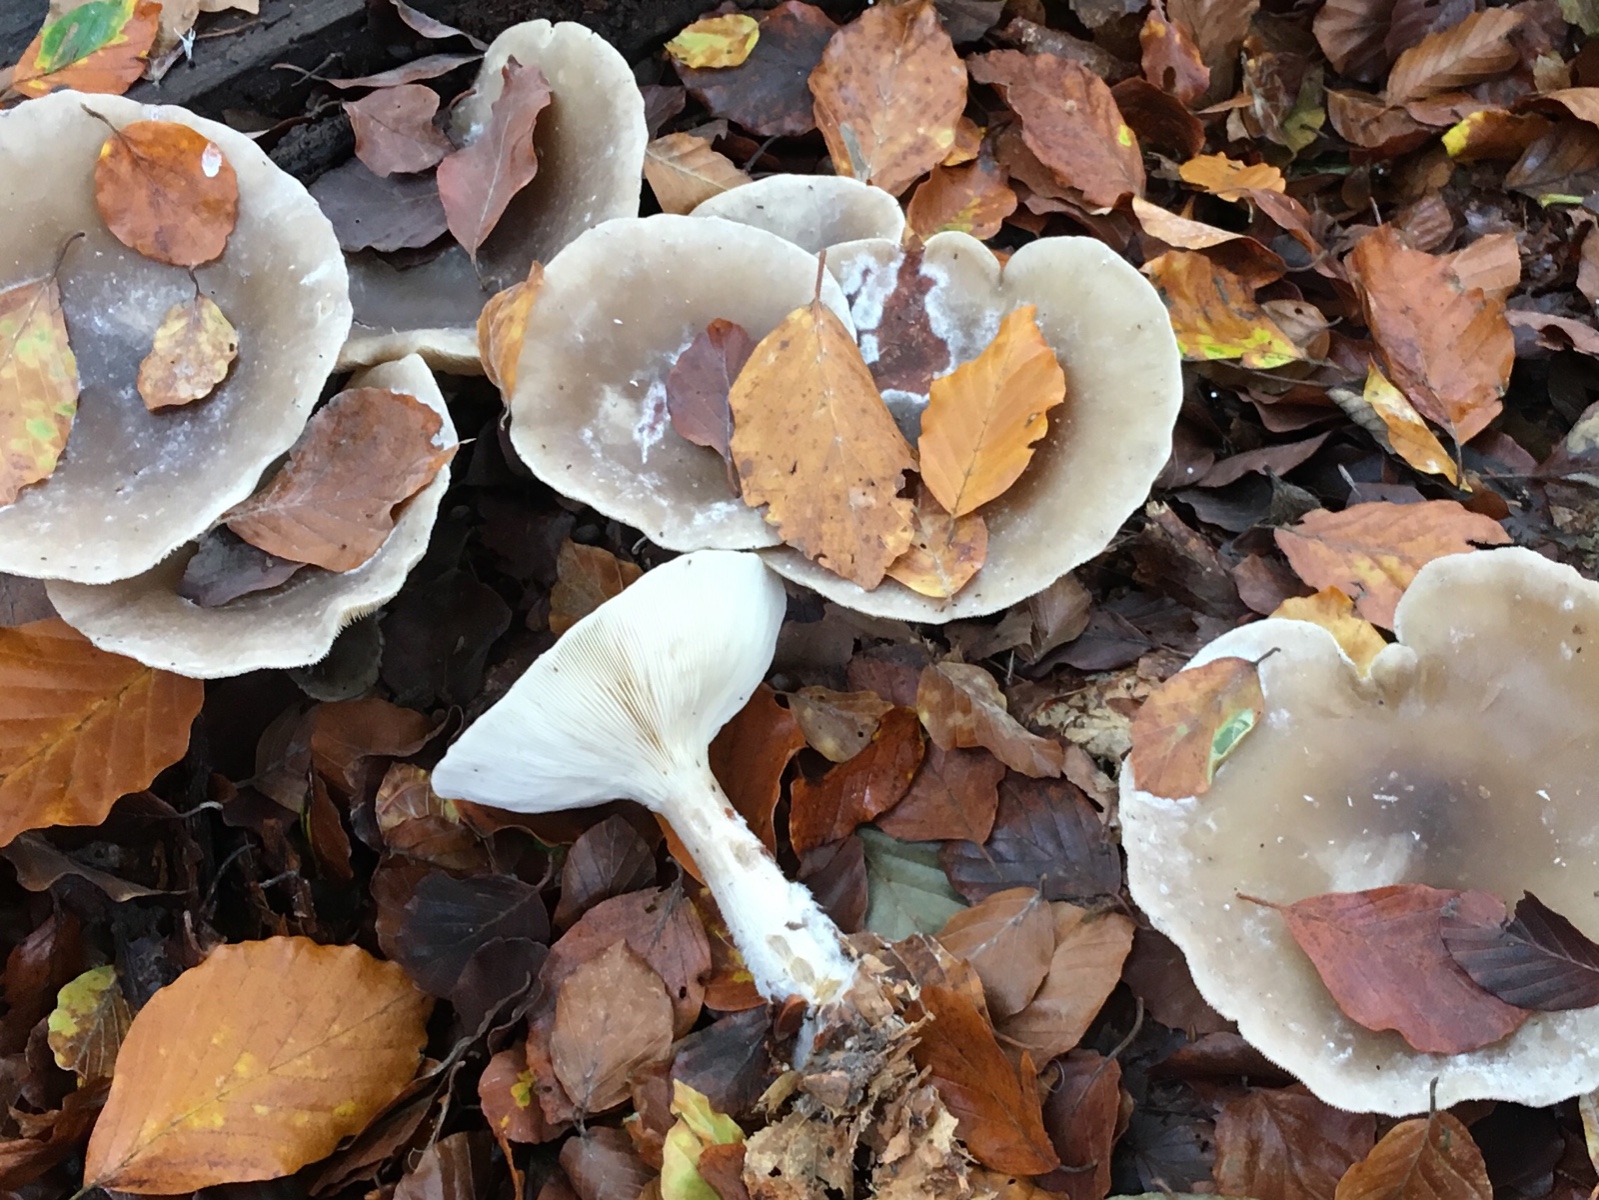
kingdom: Fungi
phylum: Basidiomycota
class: Agaricomycetes
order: Agaricales
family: Tricholomataceae
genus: Clitocybe
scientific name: Clitocybe nebularis
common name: tåge-tragthat
